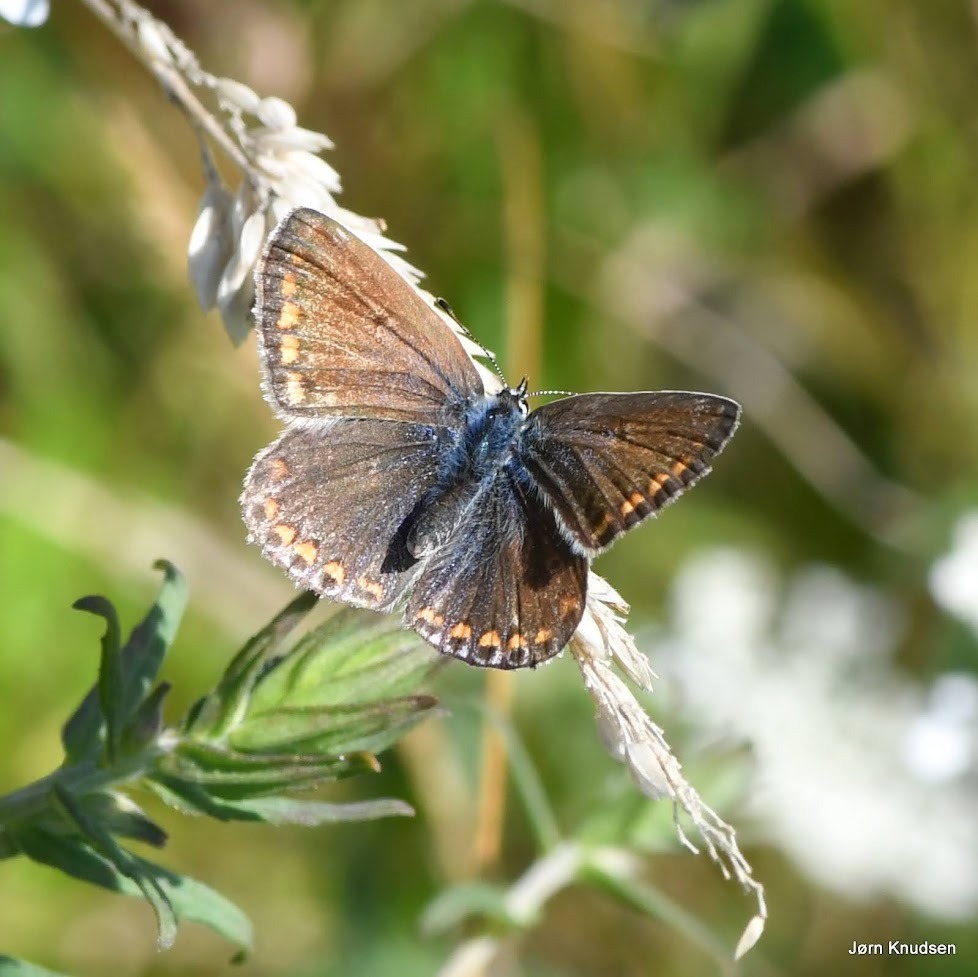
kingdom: Animalia
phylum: Arthropoda
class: Insecta
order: Lepidoptera
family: Lycaenidae
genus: Polyommatus
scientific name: Polyommatus icarus
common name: Almindelig blåfugl
